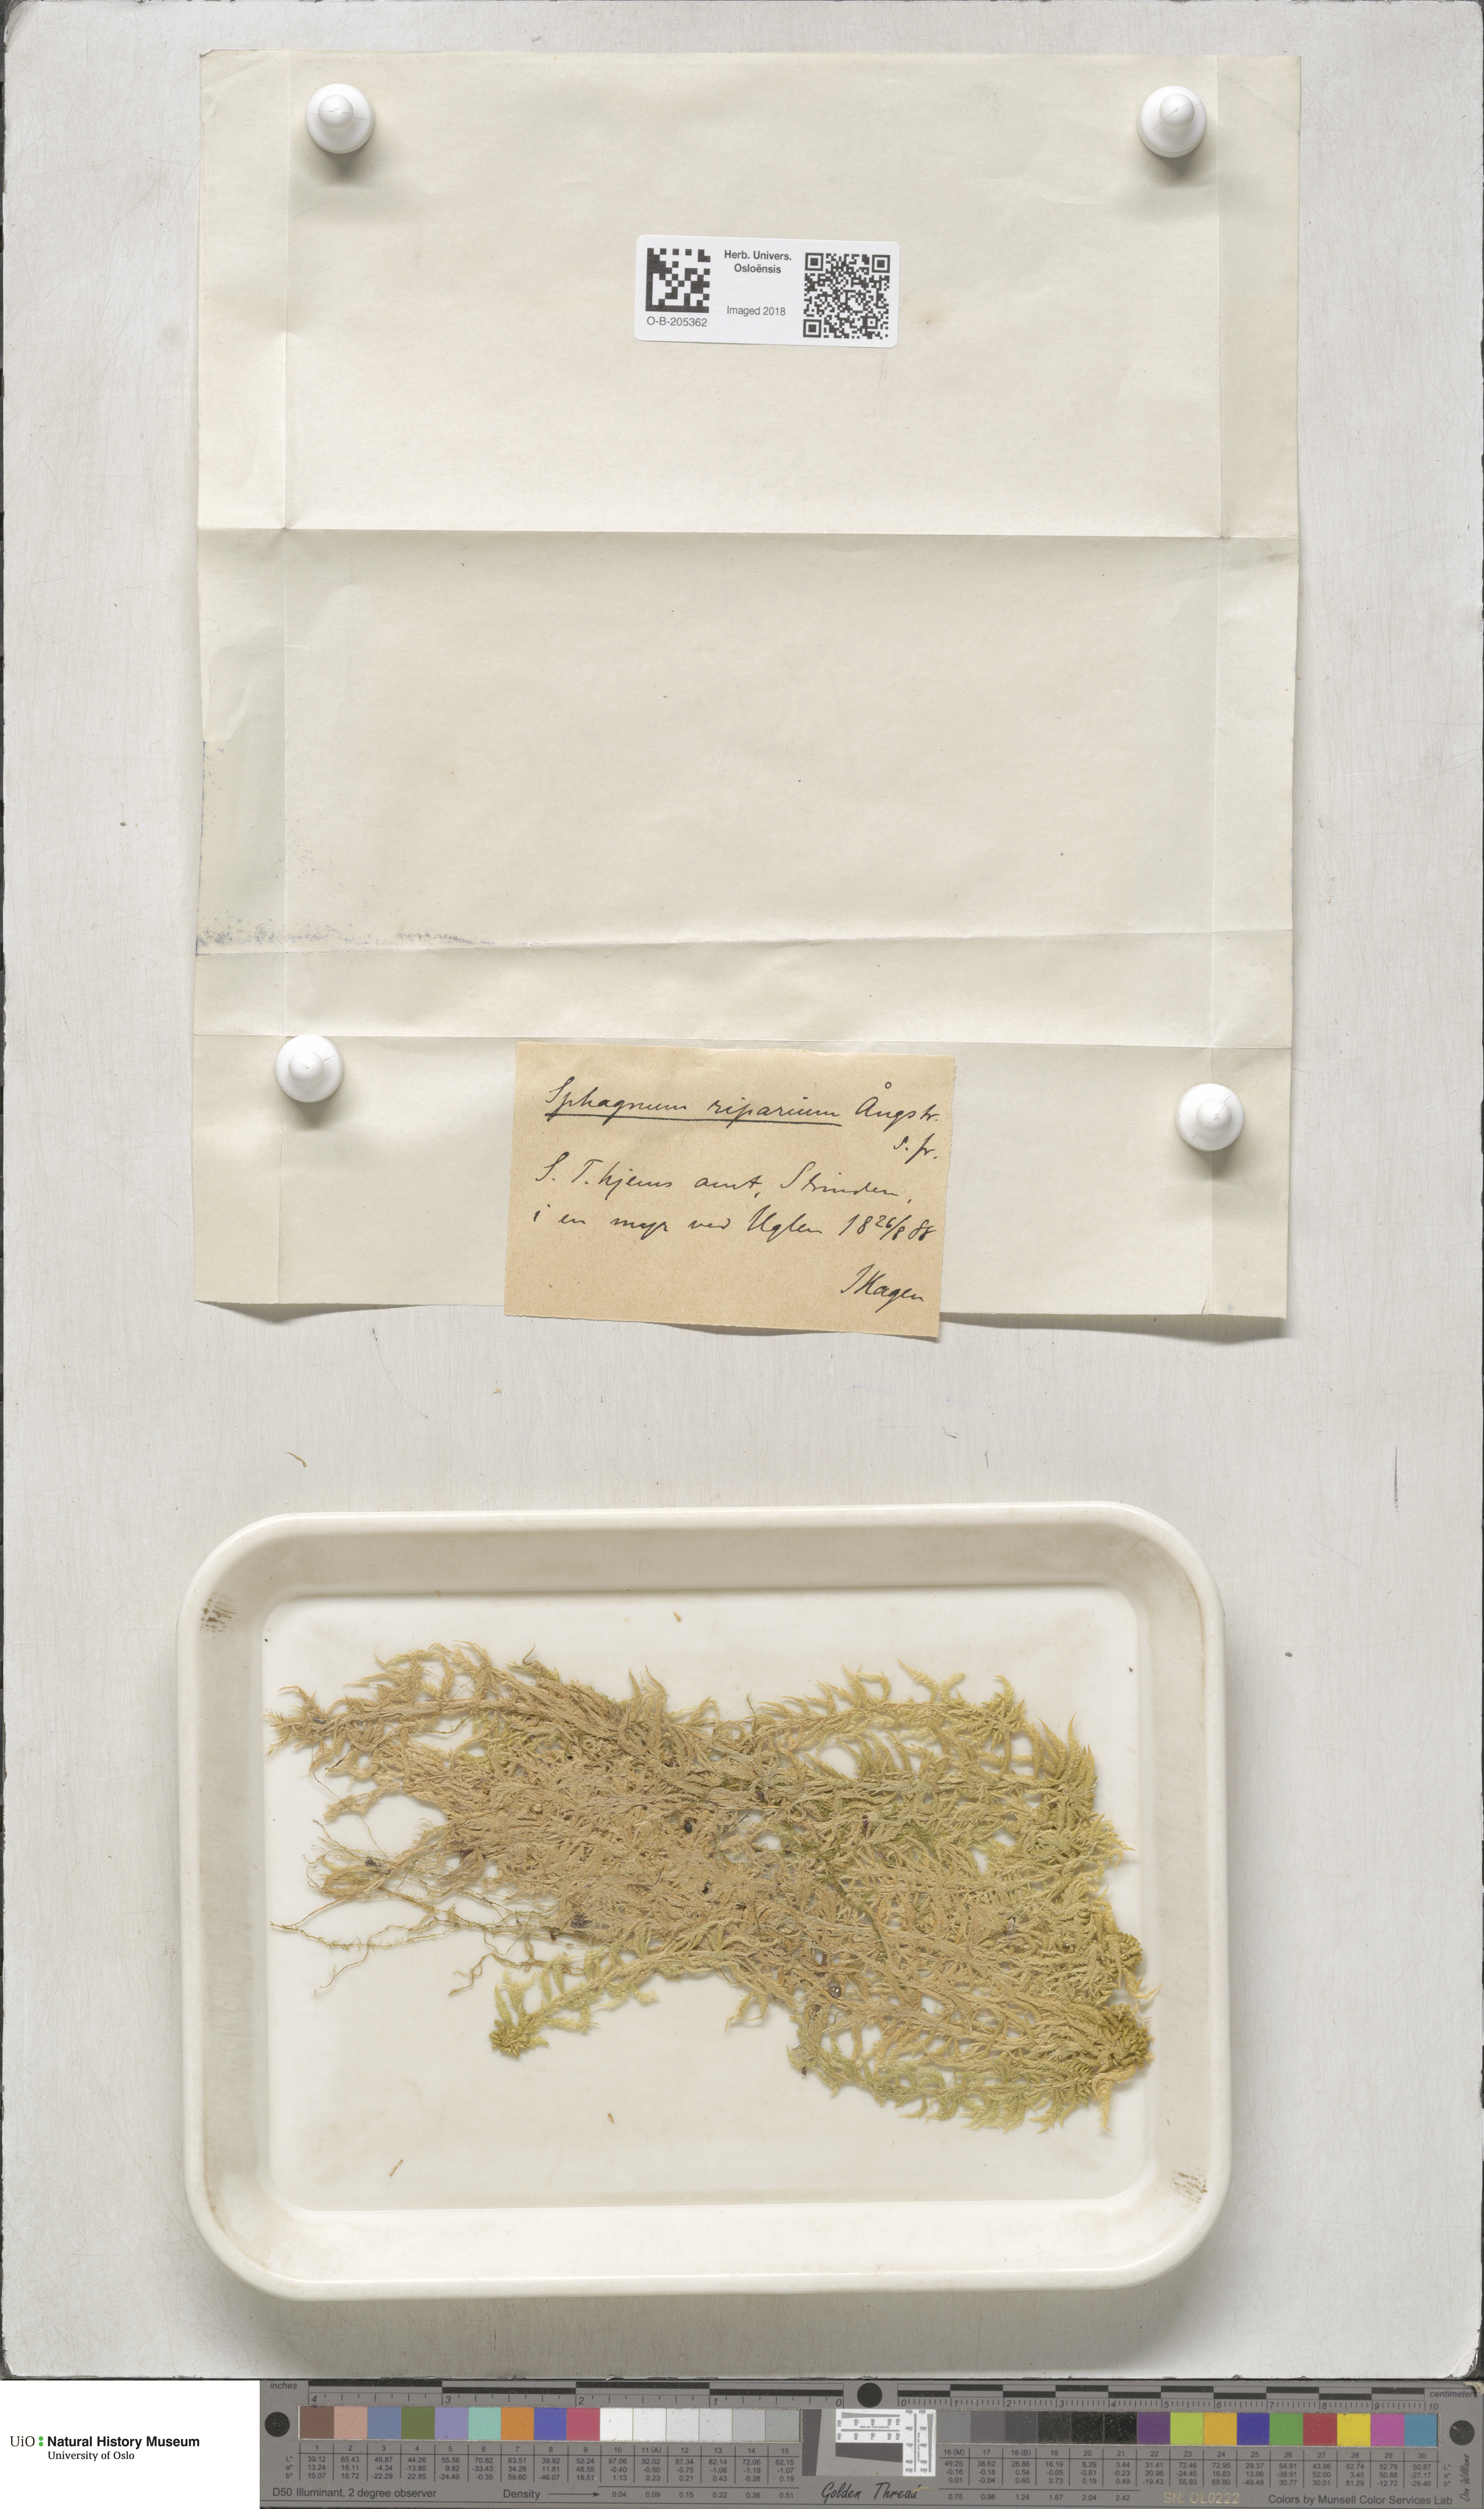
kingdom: Plantae
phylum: Bryophyta
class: Sphagnopsida
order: Sphagnales
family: Sphagnaceae
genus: Sphagnum
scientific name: Sphagnum riparium
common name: Streamside peat moss
